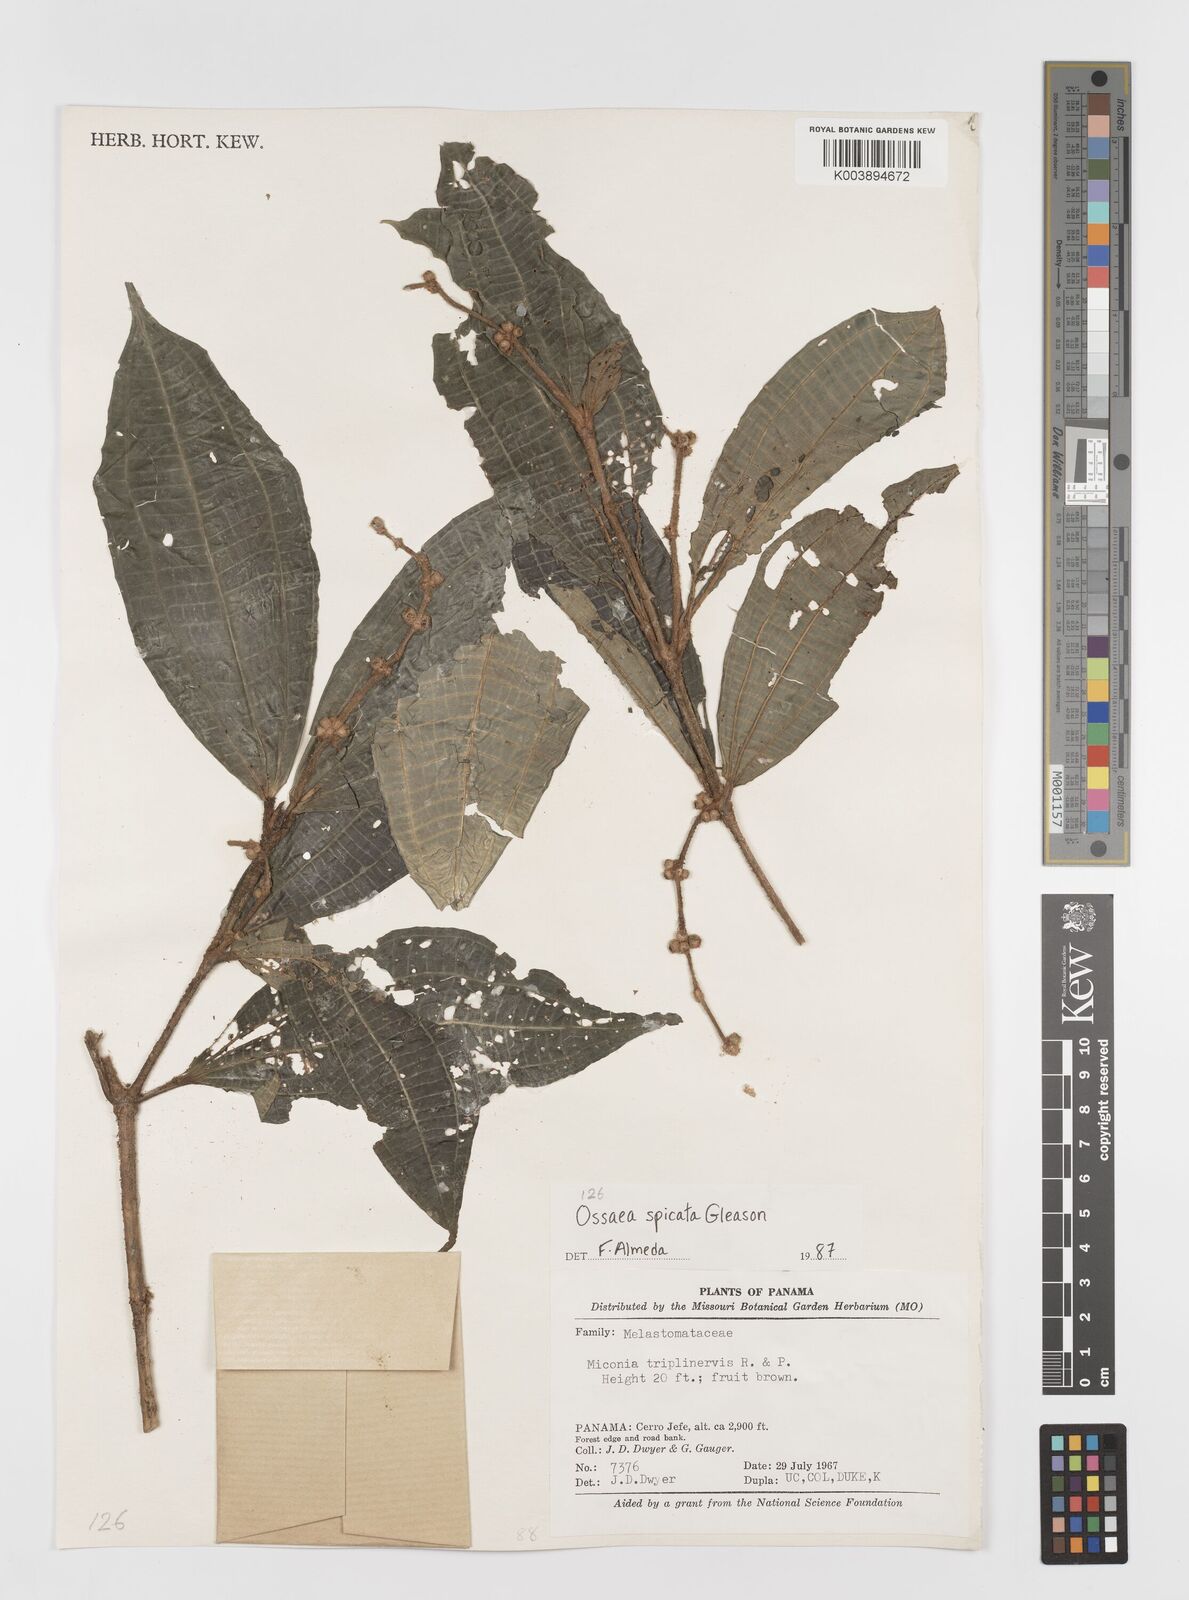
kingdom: Plantae
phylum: Tracheophyta
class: Magnoliopsida
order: Myrtales
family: Melastomataceae
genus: Miconia
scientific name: Miconia spicata
